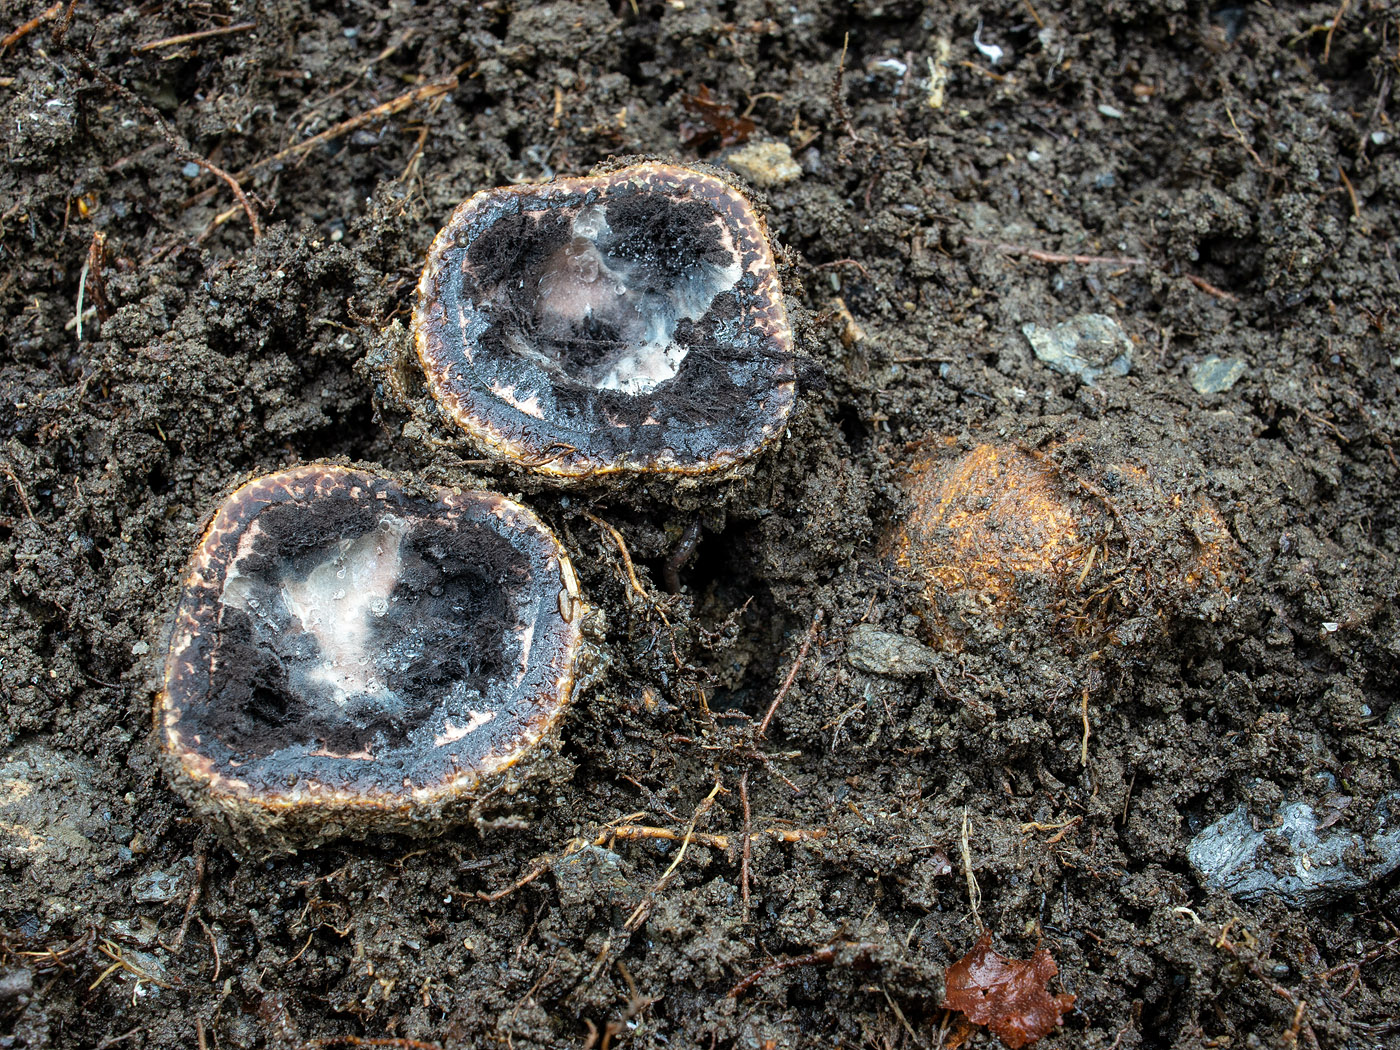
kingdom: Fungi
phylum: Ascomycota
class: Eurotiomycetes
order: Eurotiales
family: Elaphomycetaceae
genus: Elaphomyces
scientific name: Elaphomyces muricatus
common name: vortet hjortetrøffel
